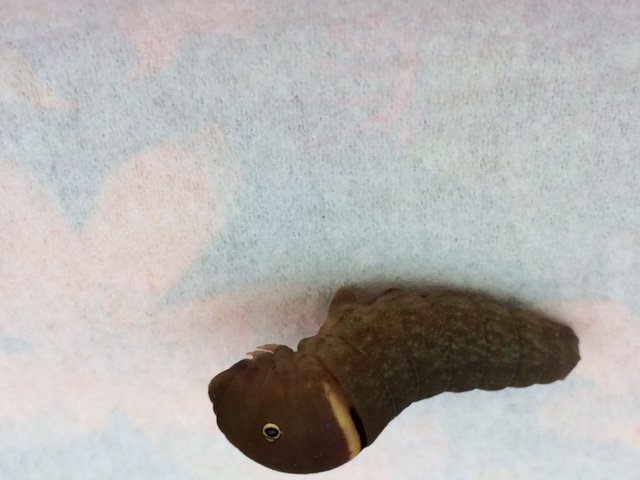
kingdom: Animalia
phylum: Arthropoda
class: Insecta
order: Lepidoptera
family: Papilionidae
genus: Pterourus
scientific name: Pterourus canadensis
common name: Canadian Tiger Swallowtail
